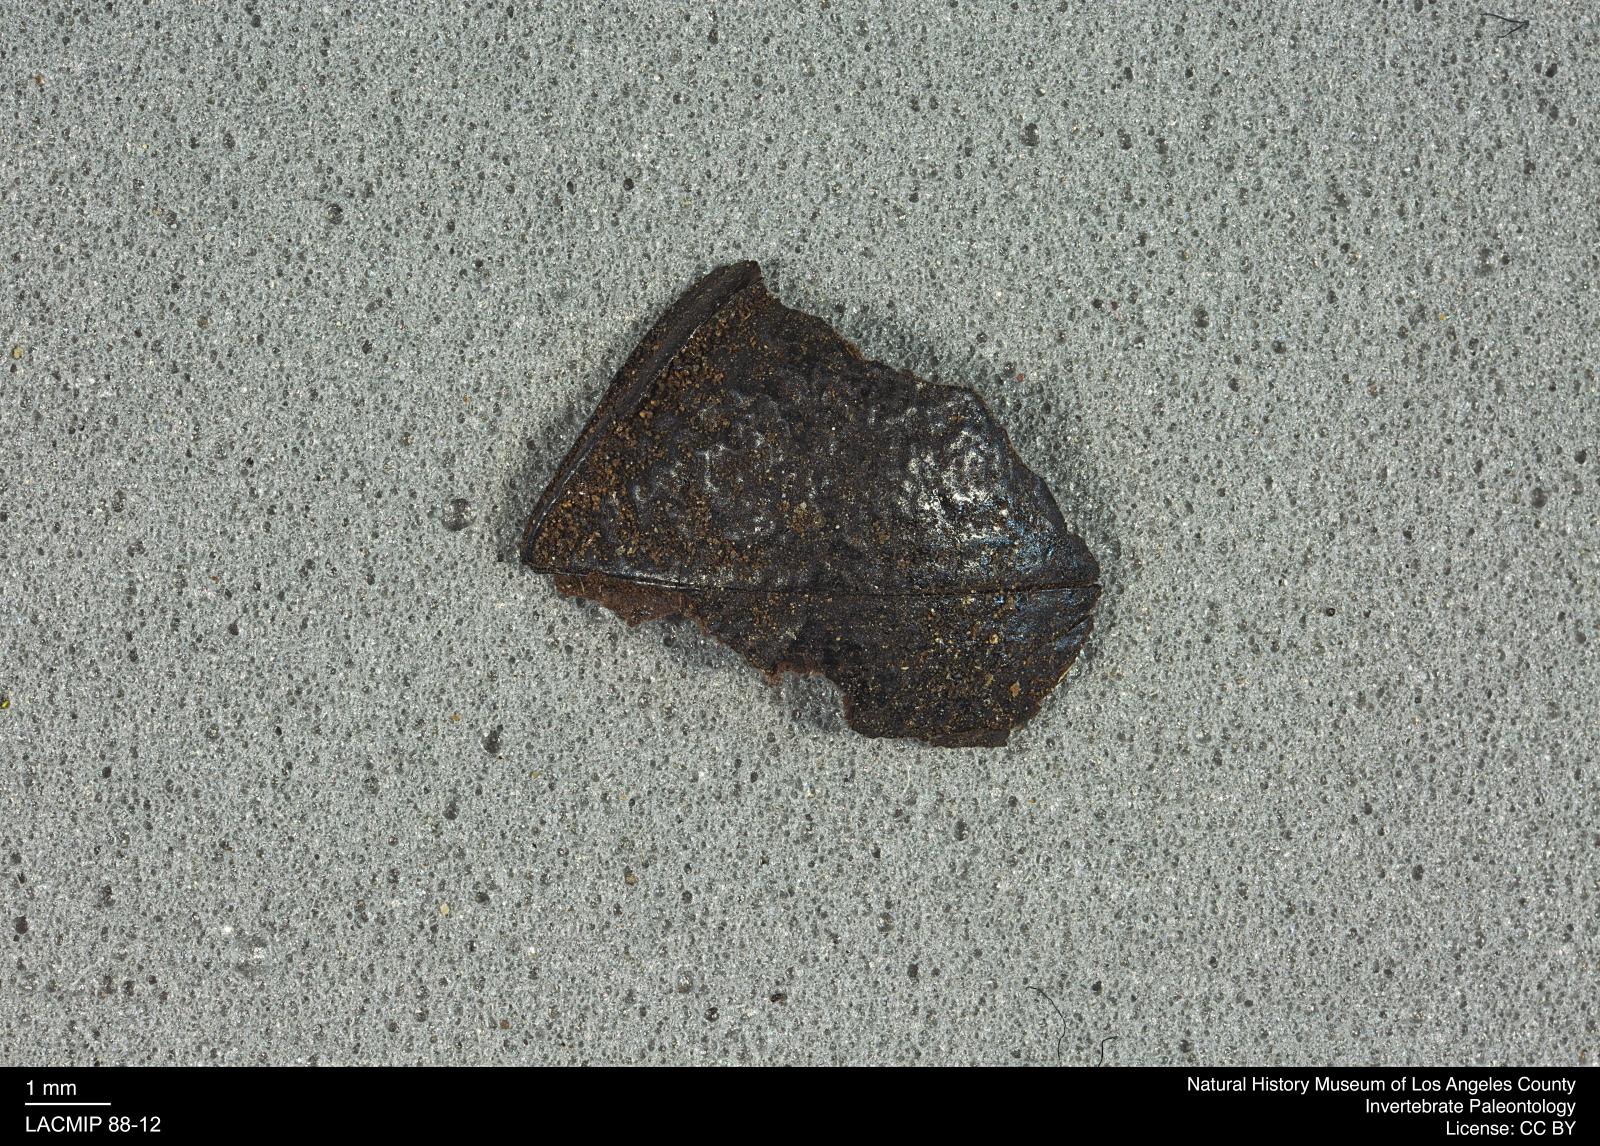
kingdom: Animalia
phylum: Arthropoda
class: Insecta
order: Coleoptera
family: Tenebrionidae
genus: Coniontis
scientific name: Coniontis abdominalis
